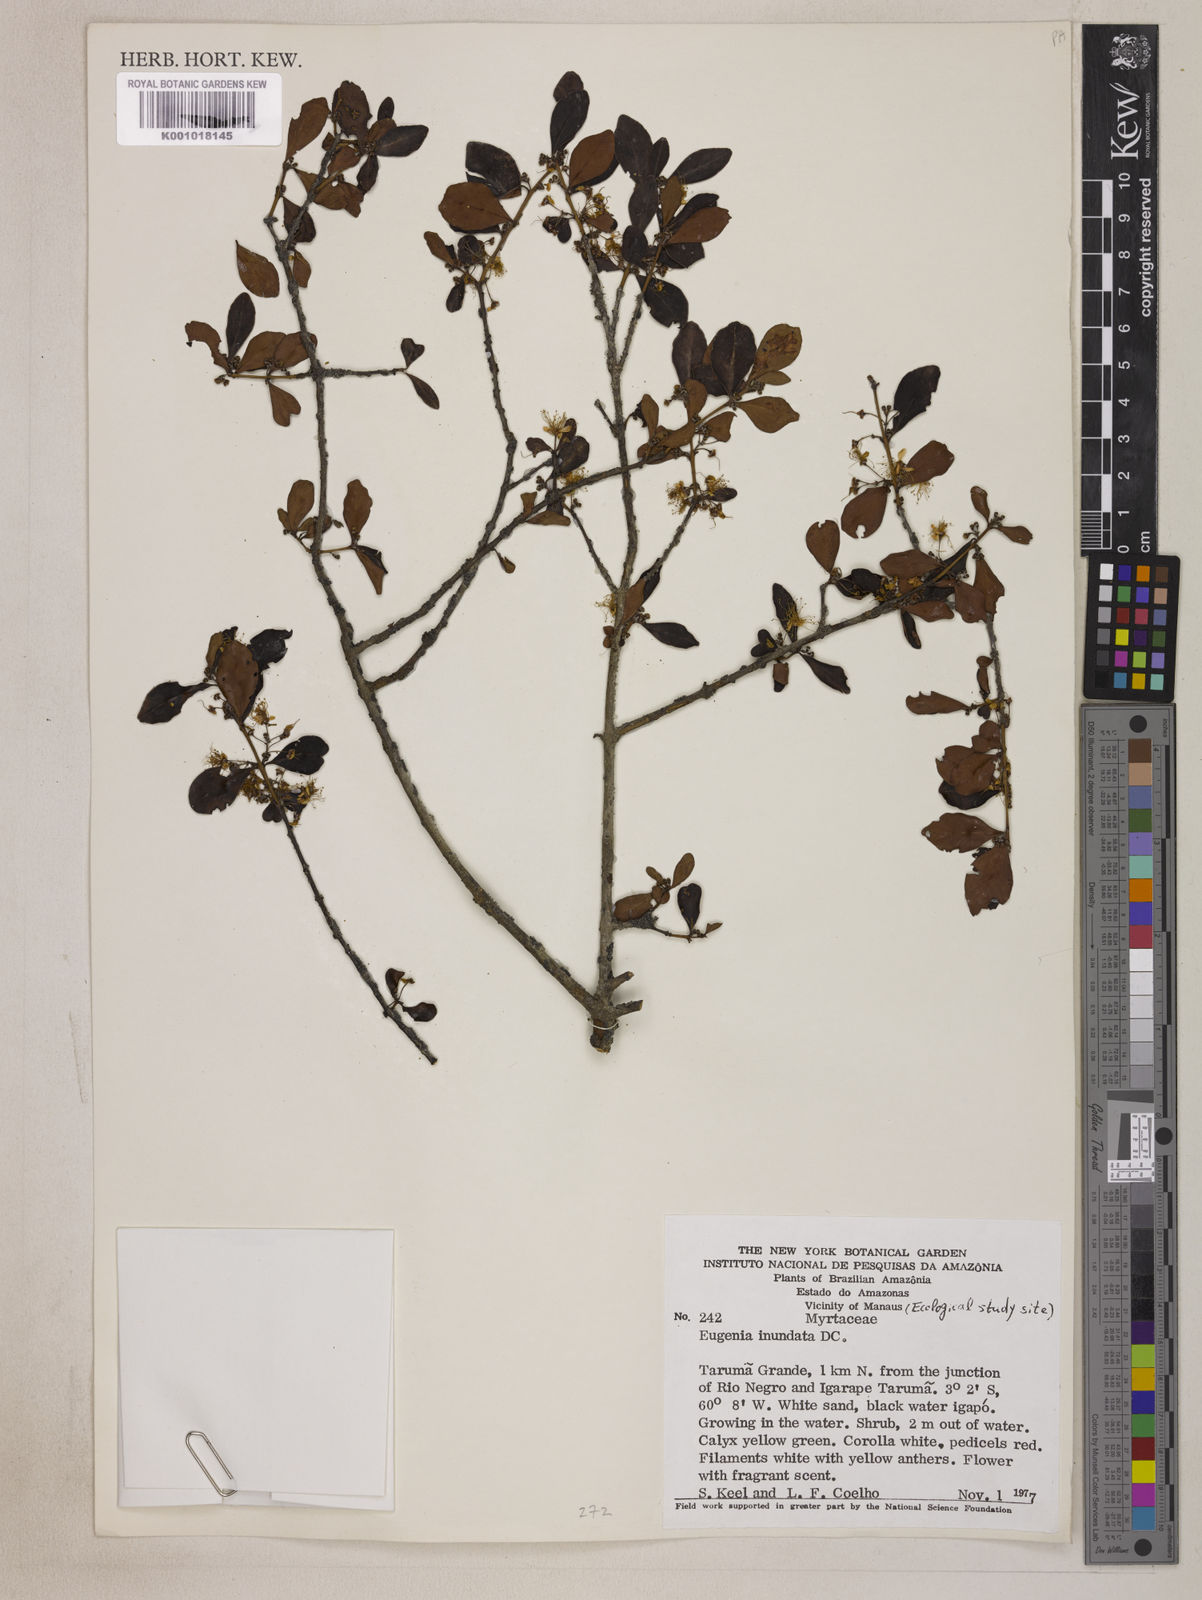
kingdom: Plantae
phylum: Tracheophyta
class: Magnoliopsida
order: Myrtales
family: Myrtaceae
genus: Eugenia
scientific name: Eugenia inundata
